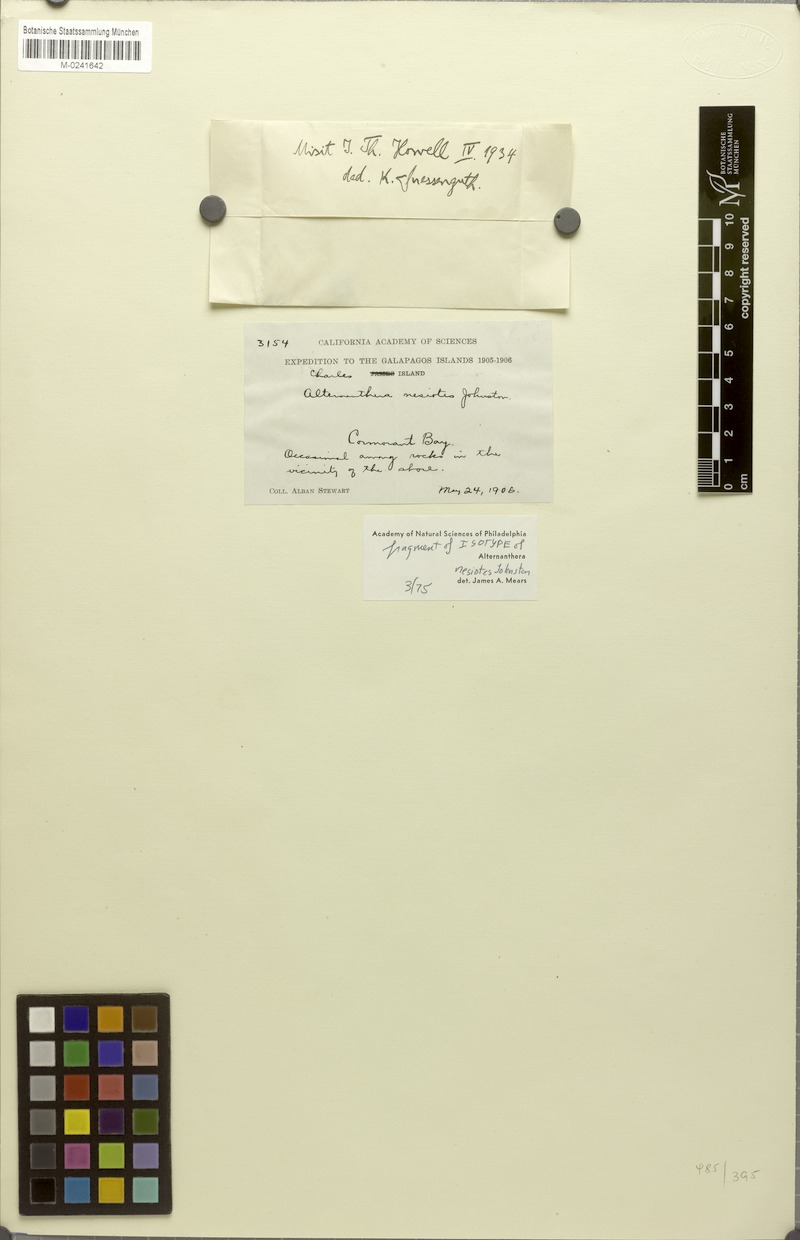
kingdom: Plantae
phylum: Tracheophyta
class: Magnoliopsida
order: Caryophyllales
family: Amaranthaceae
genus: Alternanthera
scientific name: Alternanthera nesiotes
